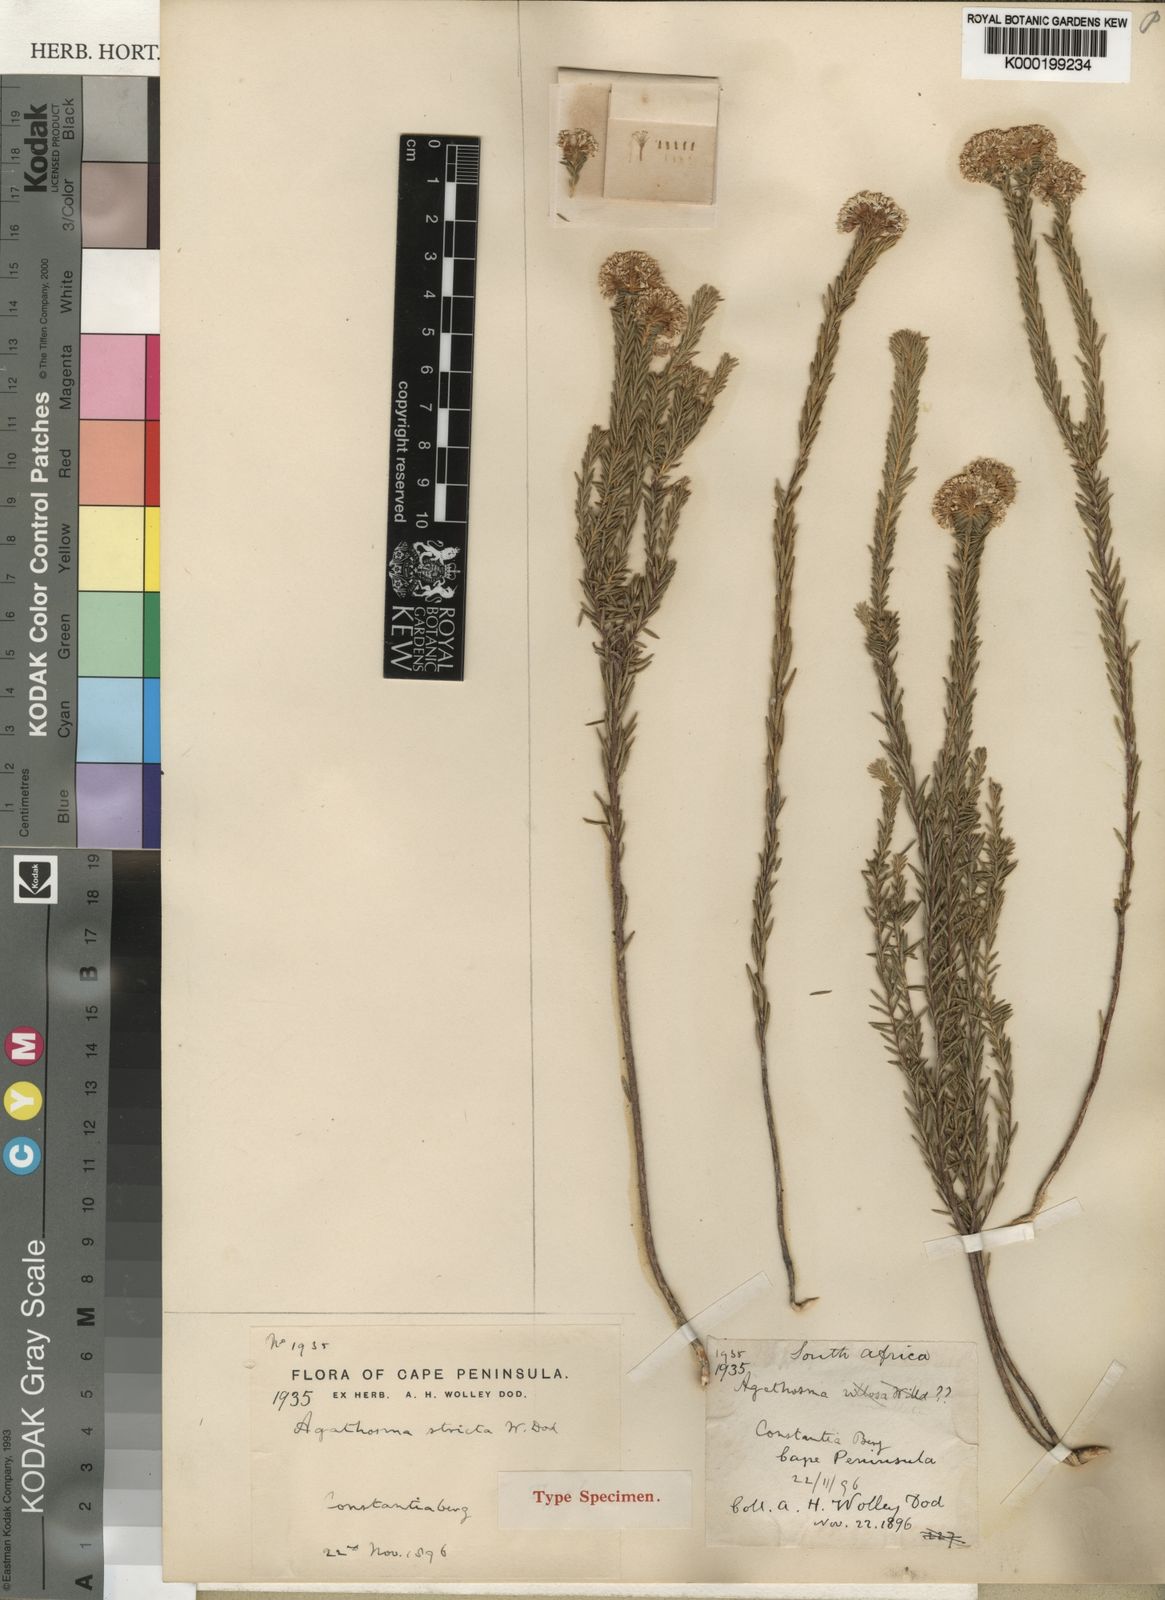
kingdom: Plantae
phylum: Tracheophyta
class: Magnoliopsida
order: Sapindales
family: Rutaceae
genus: Agathosma
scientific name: Agathosma bifida
